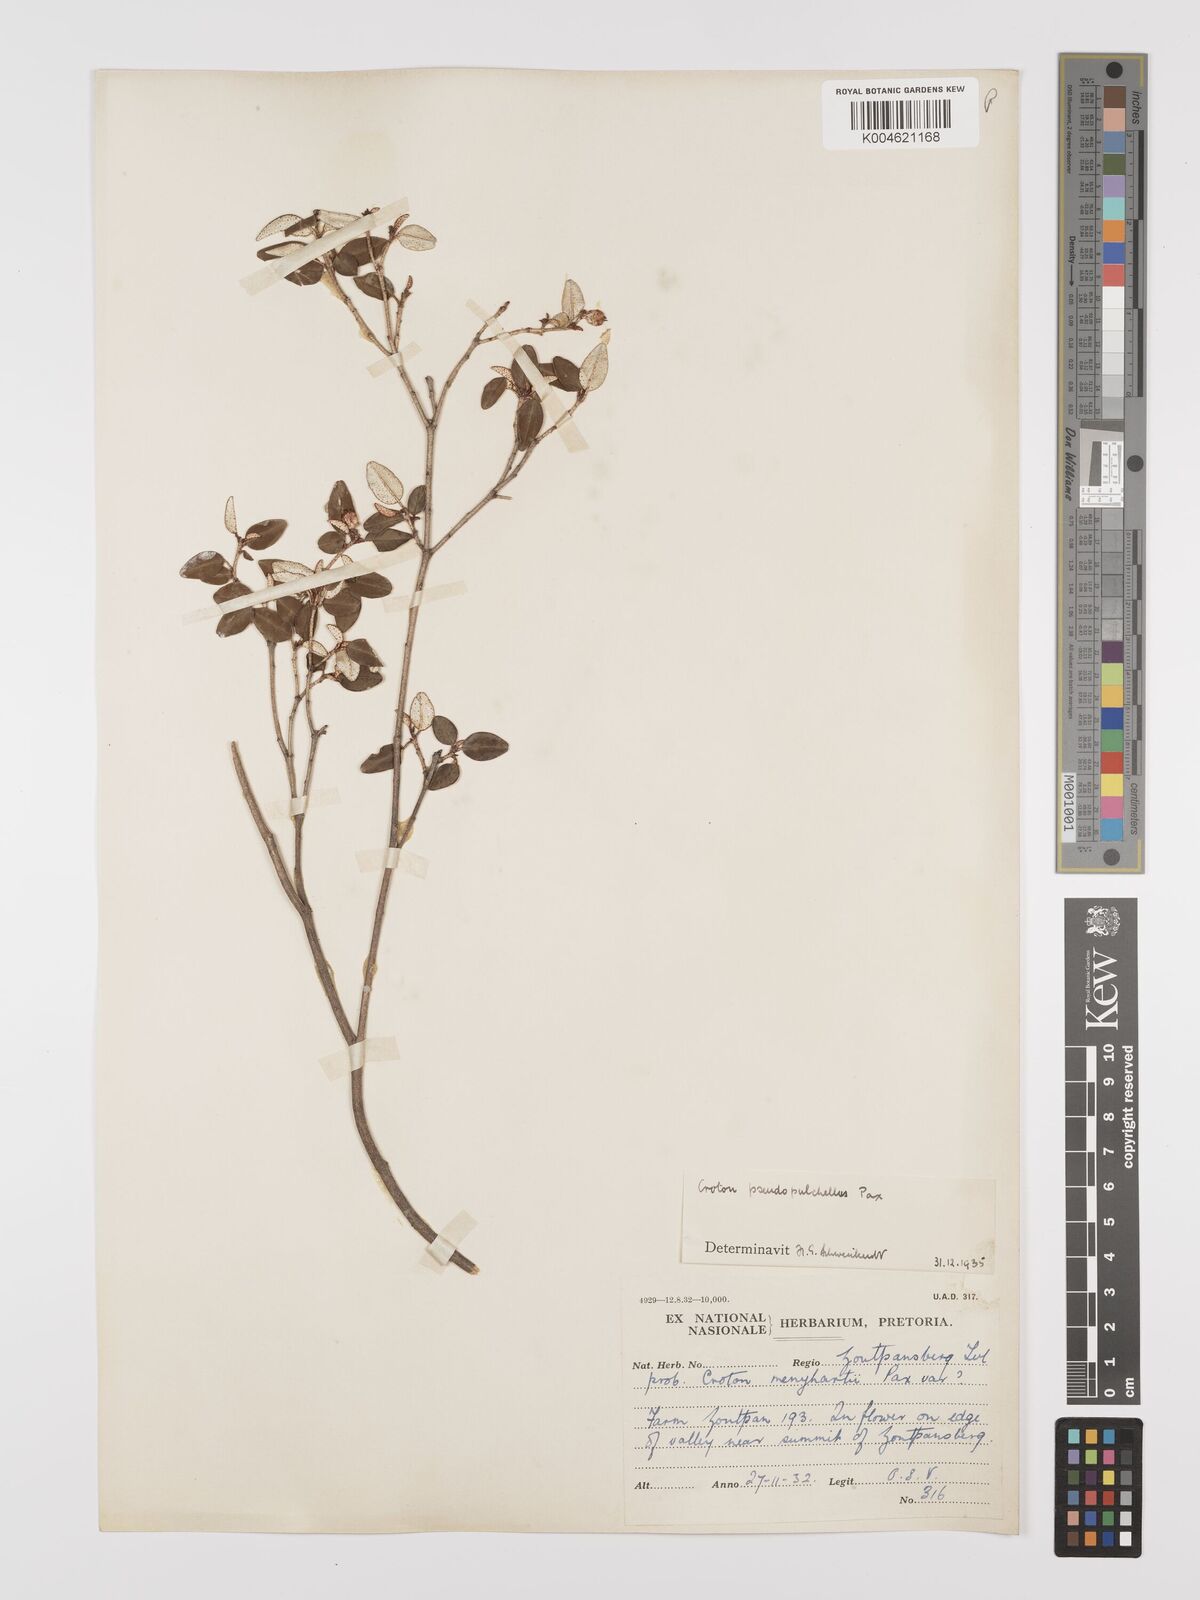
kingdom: Plantae
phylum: Tracheophyta
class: Magnoliopsida
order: Malpighiales
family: Euphorbiaceae
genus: Croton
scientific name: Croton pseudopulchellus
